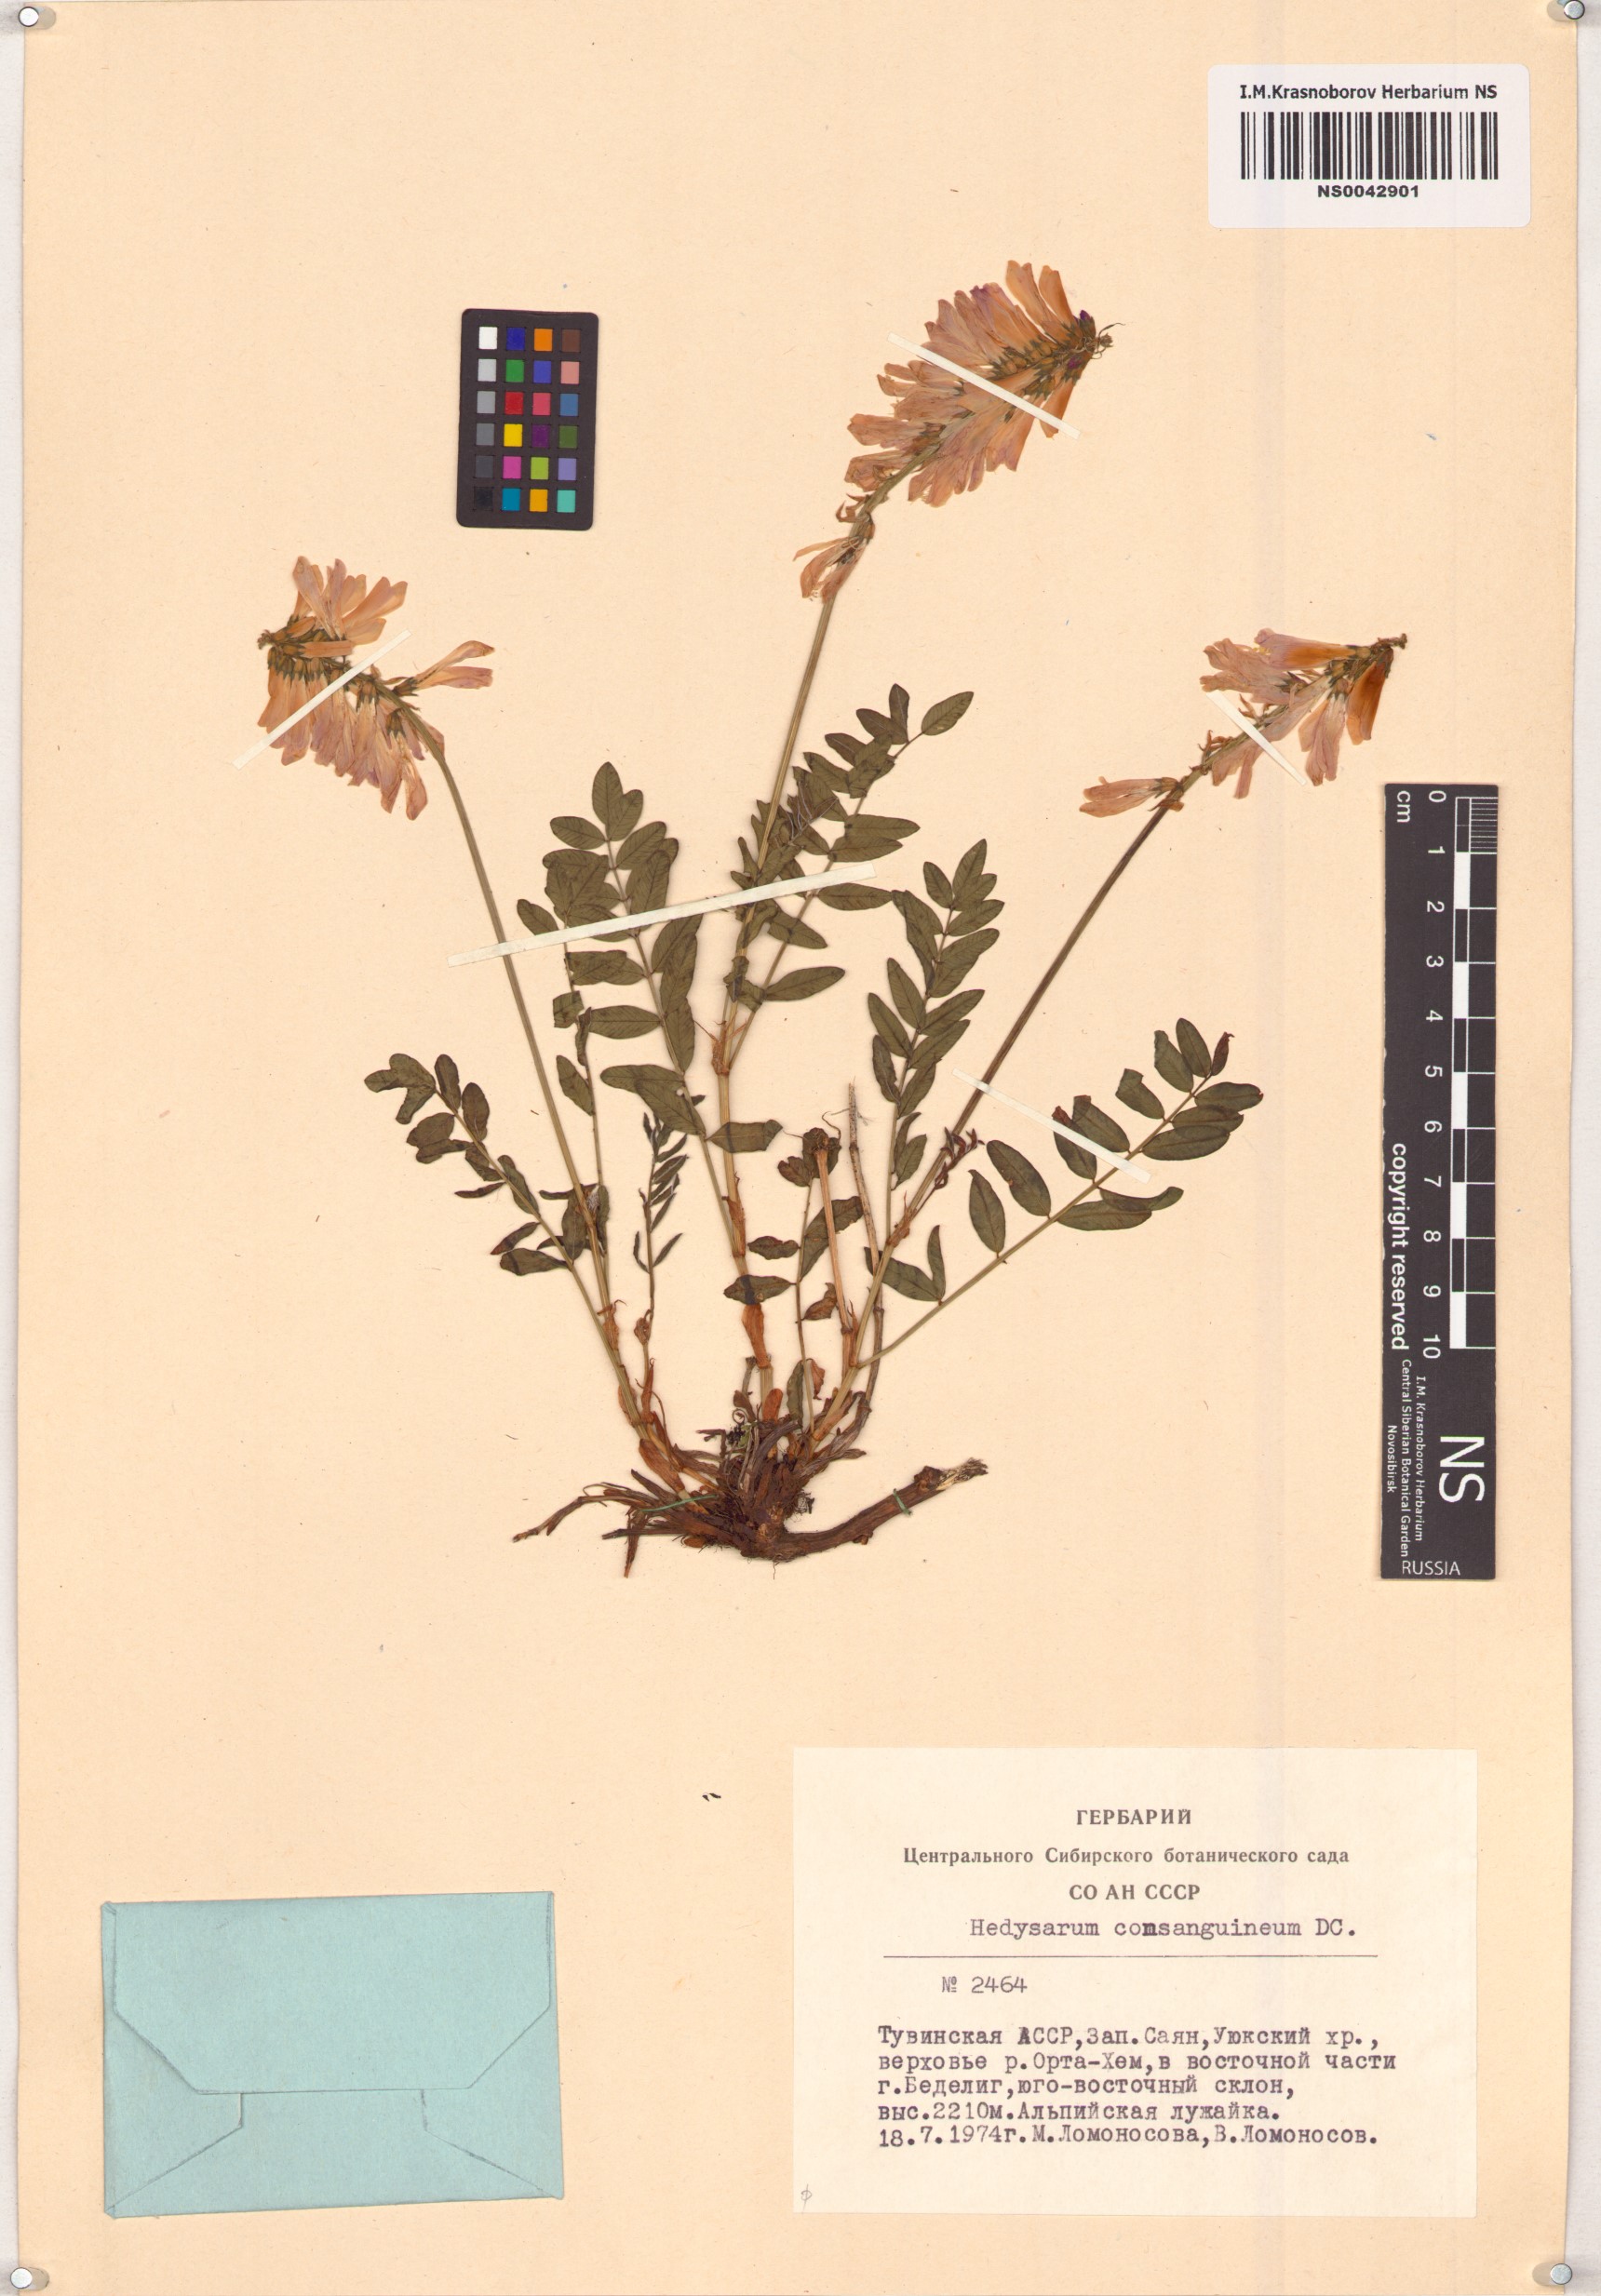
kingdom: Plantae
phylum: Tracheophyta
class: Magnoliopsida
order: Fabales
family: Fabaceae
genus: Hedysarum
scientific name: Hedysarum consanguineum
